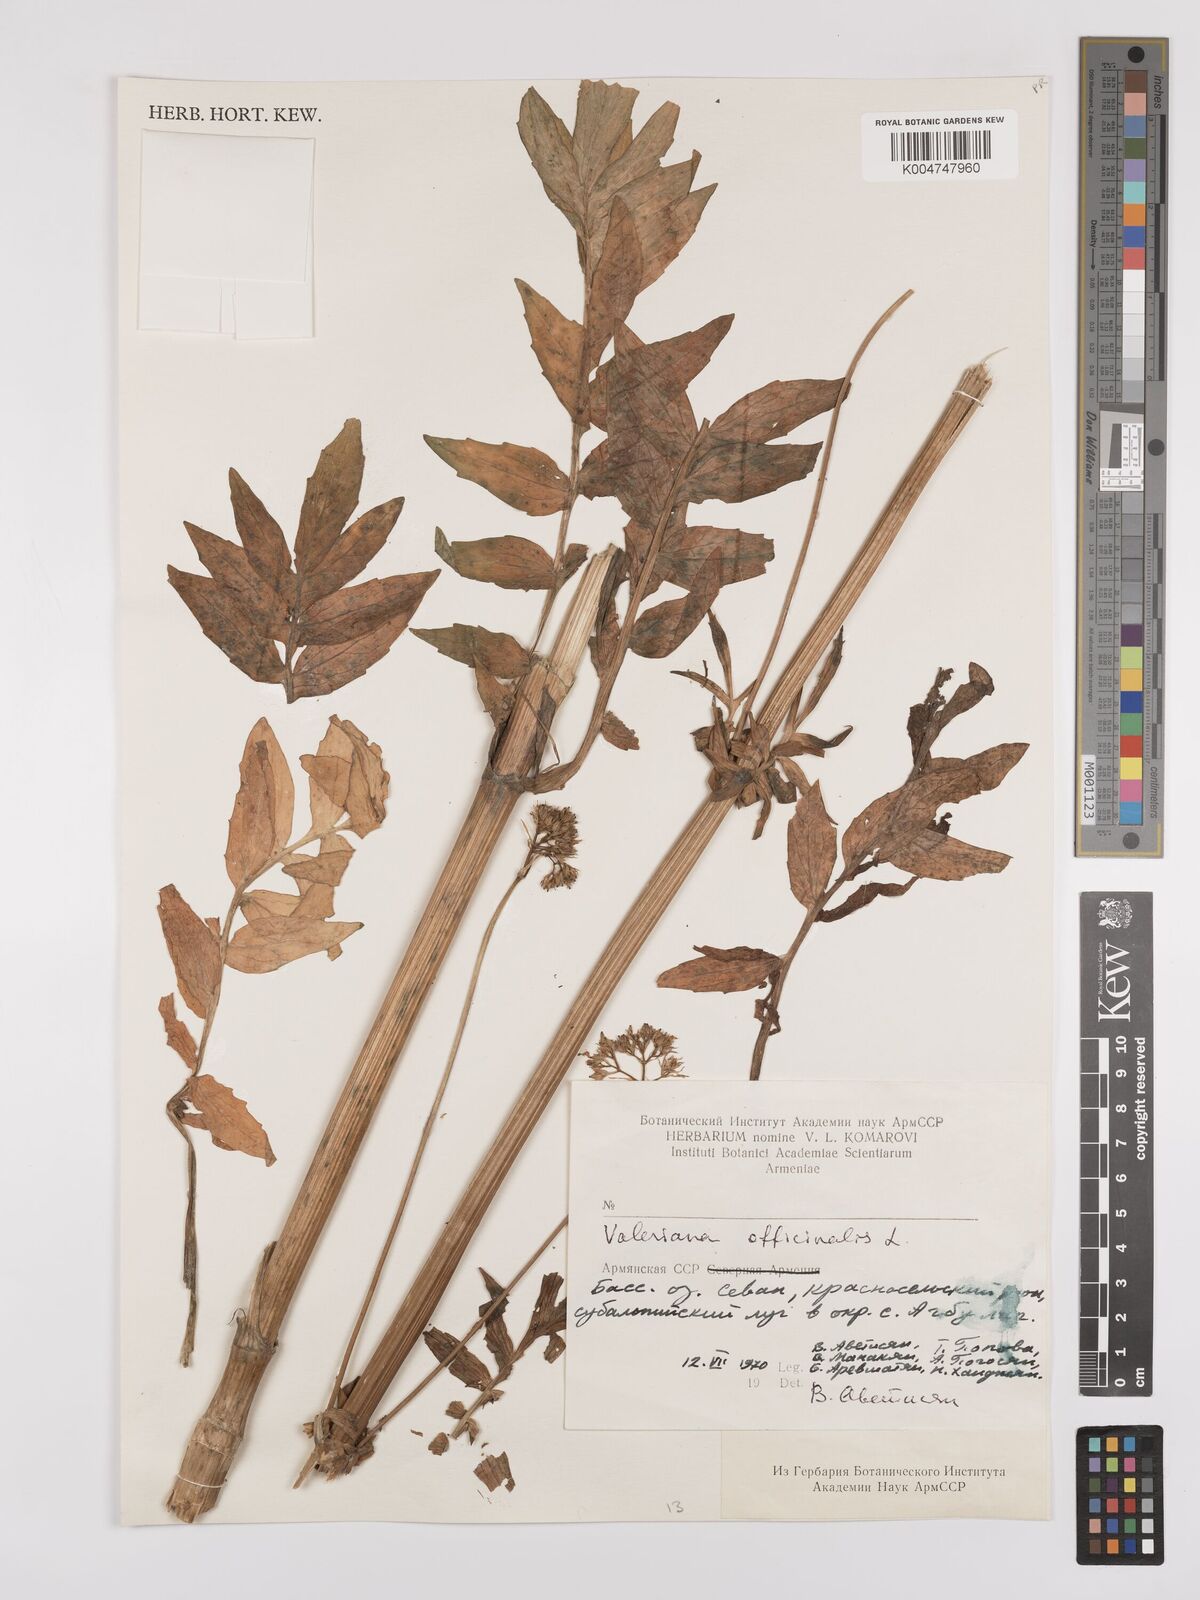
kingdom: Plantae
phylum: Tracheophyta
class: Magnoliopsida
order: Dipsacales
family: Caprifoliaceae
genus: Valeriana
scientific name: Valeriana officinalis
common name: Common valerian
